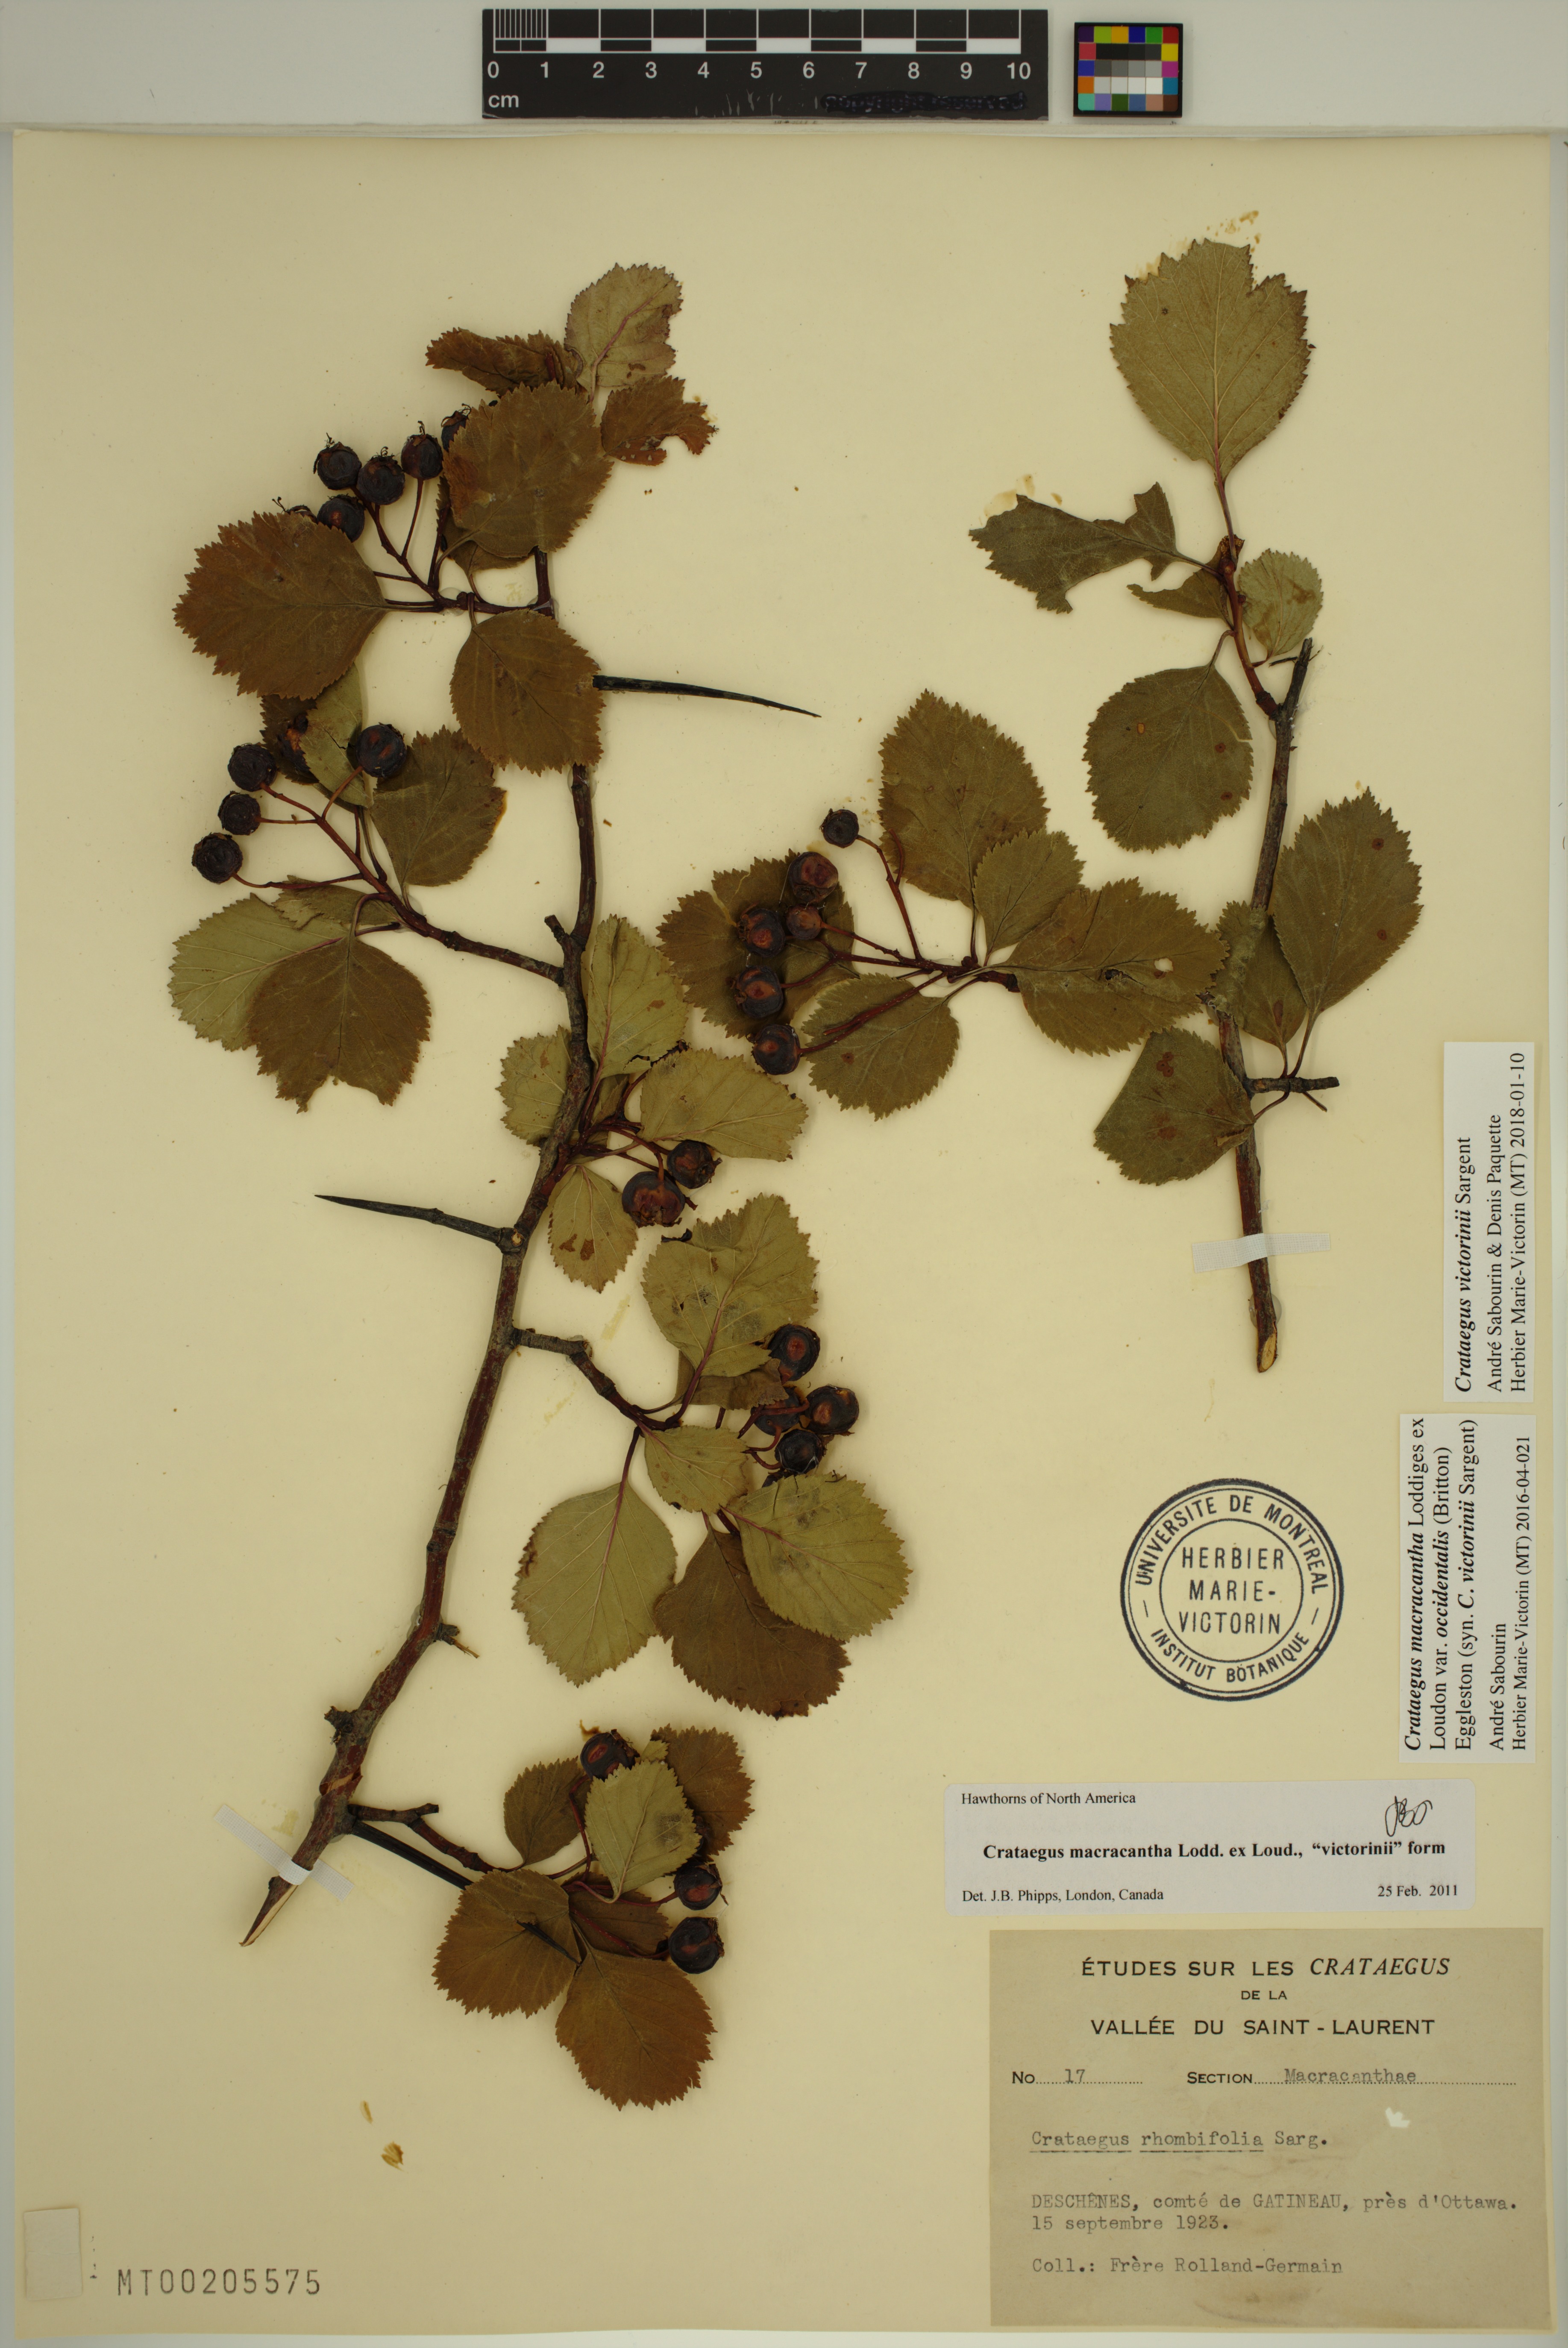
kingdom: Plantae
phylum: Tracheophyta
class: Magnoliopsida
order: Rosales
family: Rosaceae
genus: Crataegus
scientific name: Crataegus macracantha
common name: Large-thorn hawthorn
